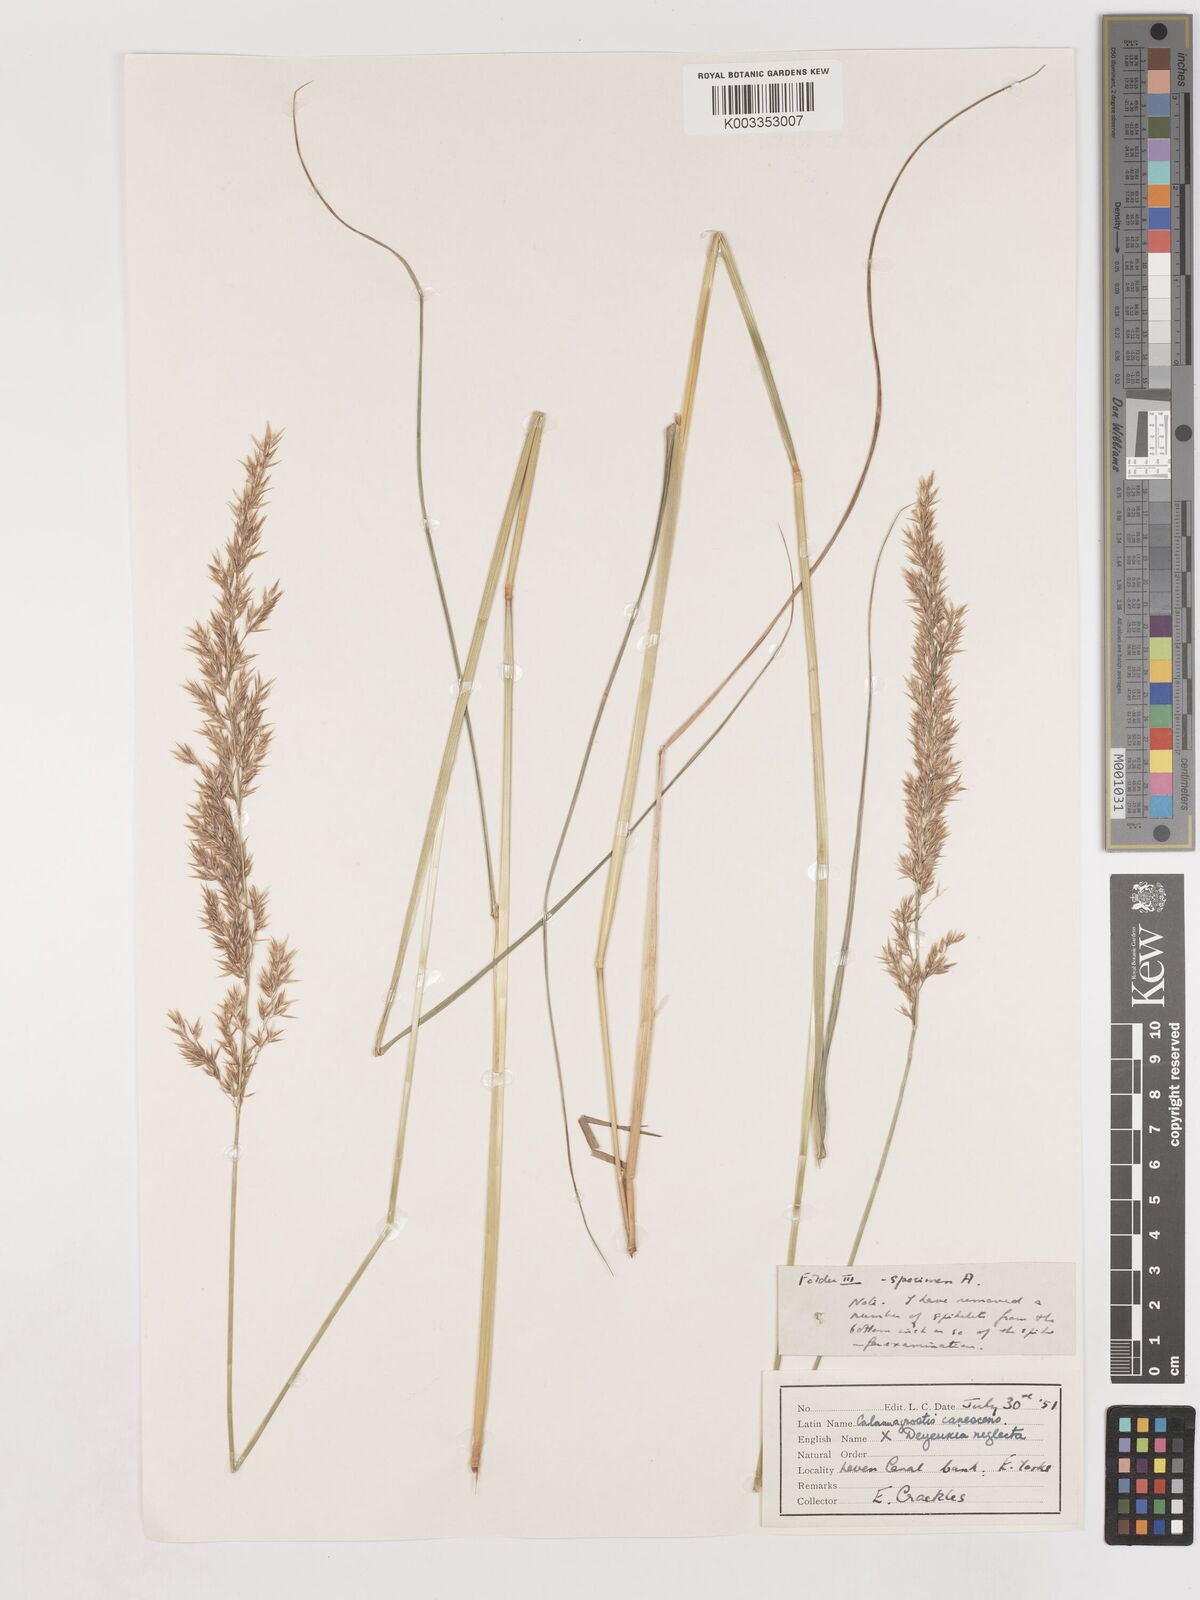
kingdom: Plantae
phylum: Tracheophyta
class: Liliopsida
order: Poales
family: Poaceae
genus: Calamagrostis
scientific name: Calamagrostis canescens
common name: Purple small-reed
